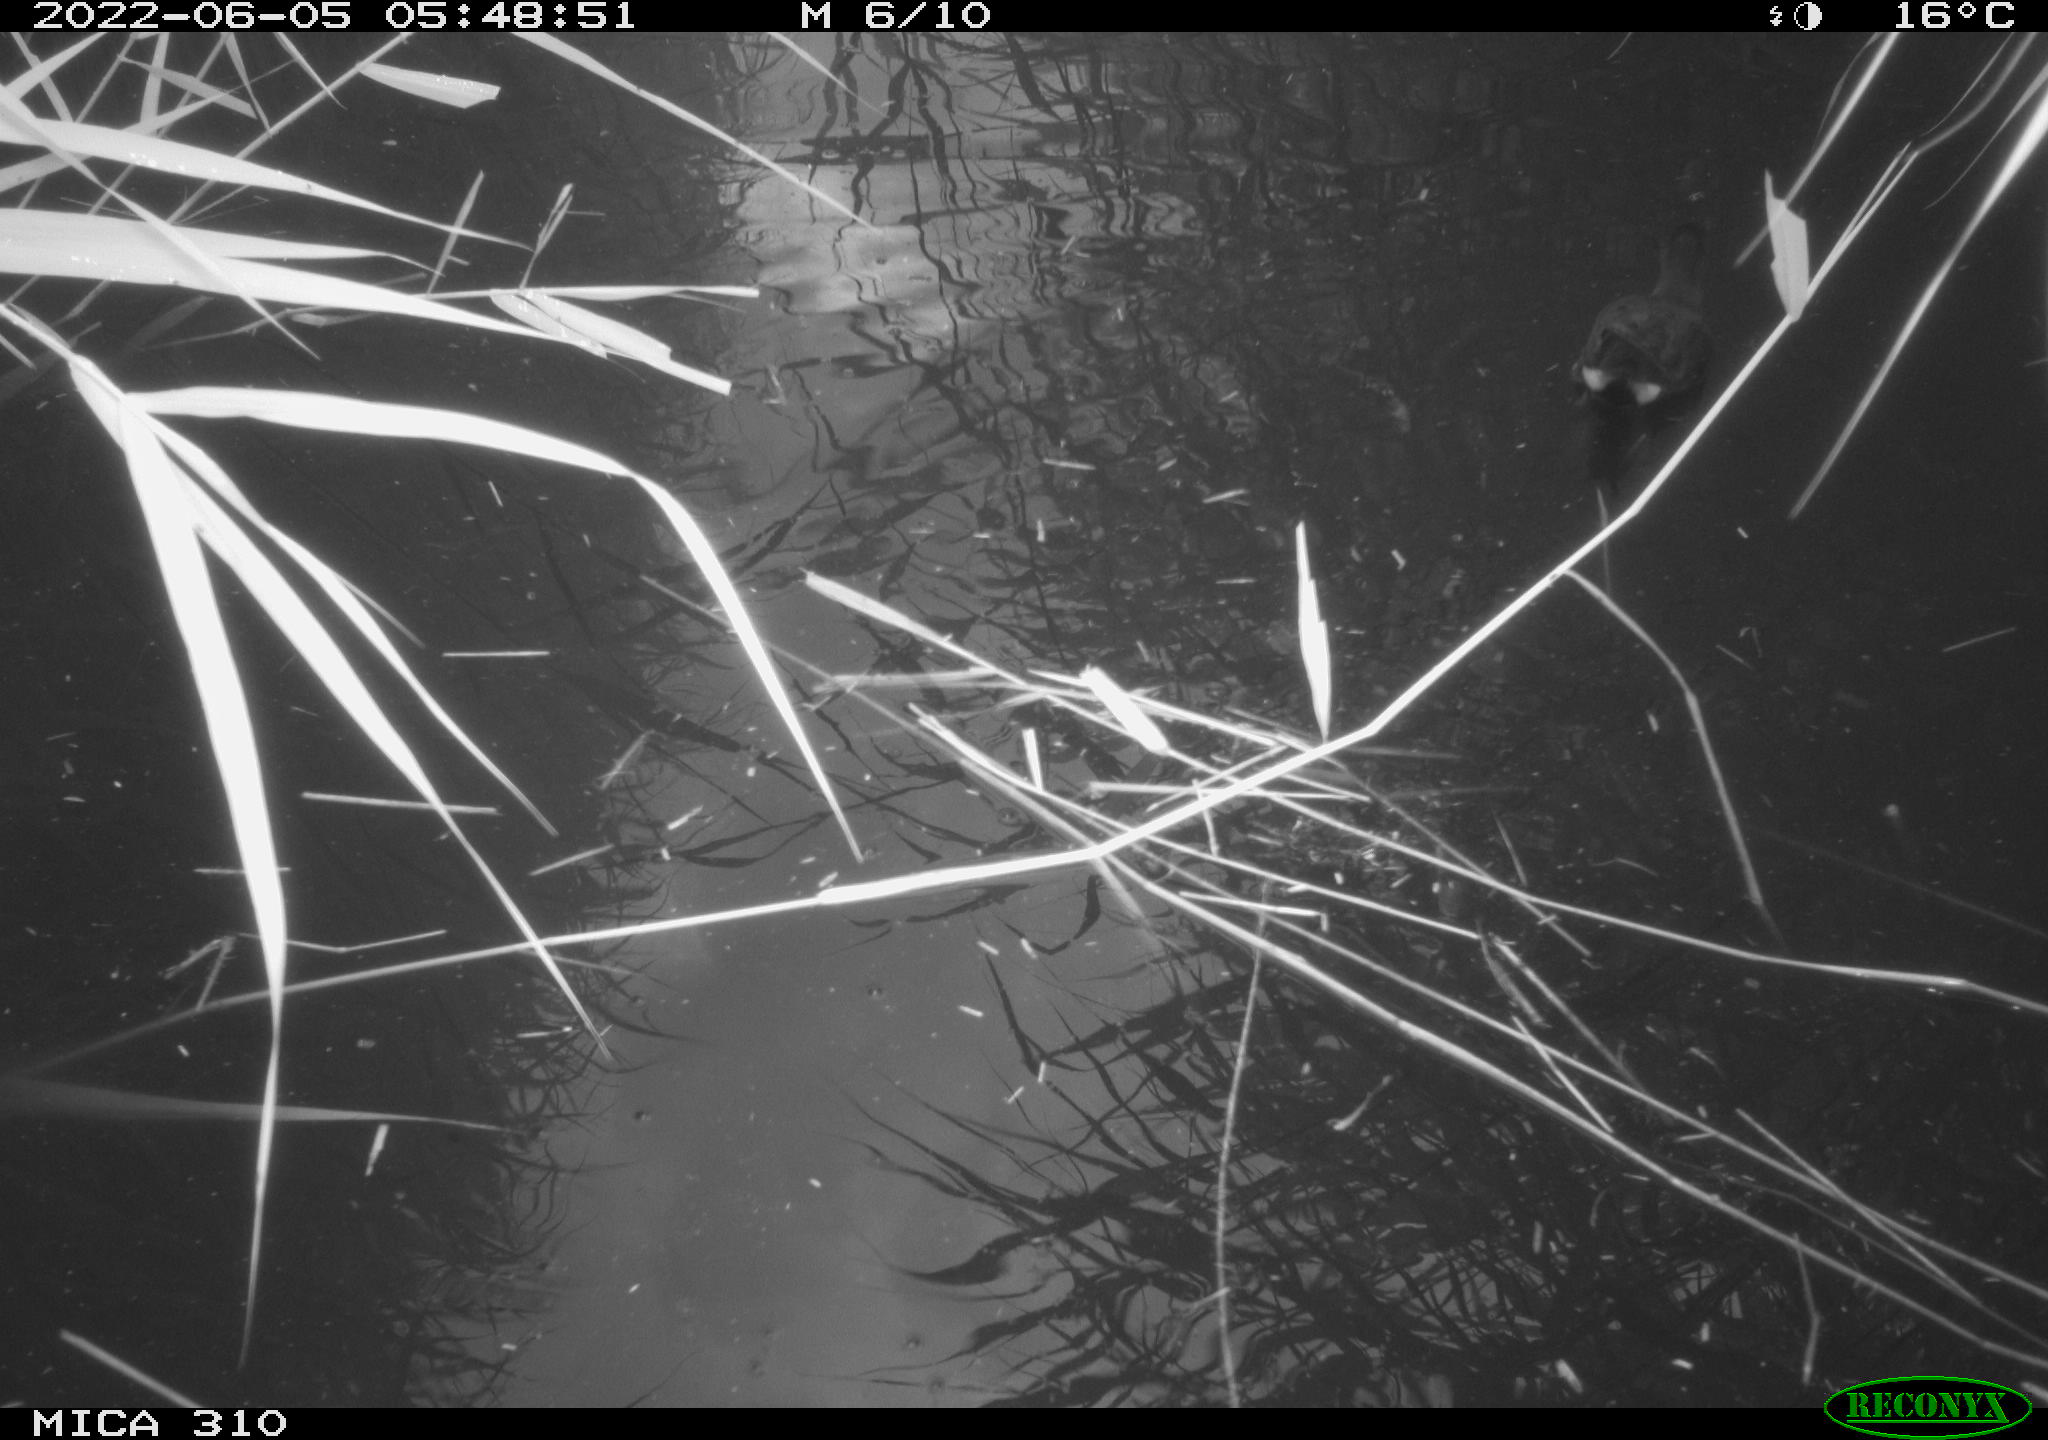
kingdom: Animalia
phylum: Chordata
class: Aves
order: Gruiformes
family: Rallidae
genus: Gallinula
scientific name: Gallinula chloropus
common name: Common moorhen
